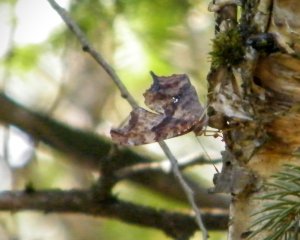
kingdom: Animalia
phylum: Arthropoda
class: Insecta
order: Lepidoptera
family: Nymphalidae
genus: Polygonia
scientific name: Polygonia interrogationis
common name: Question Mark
